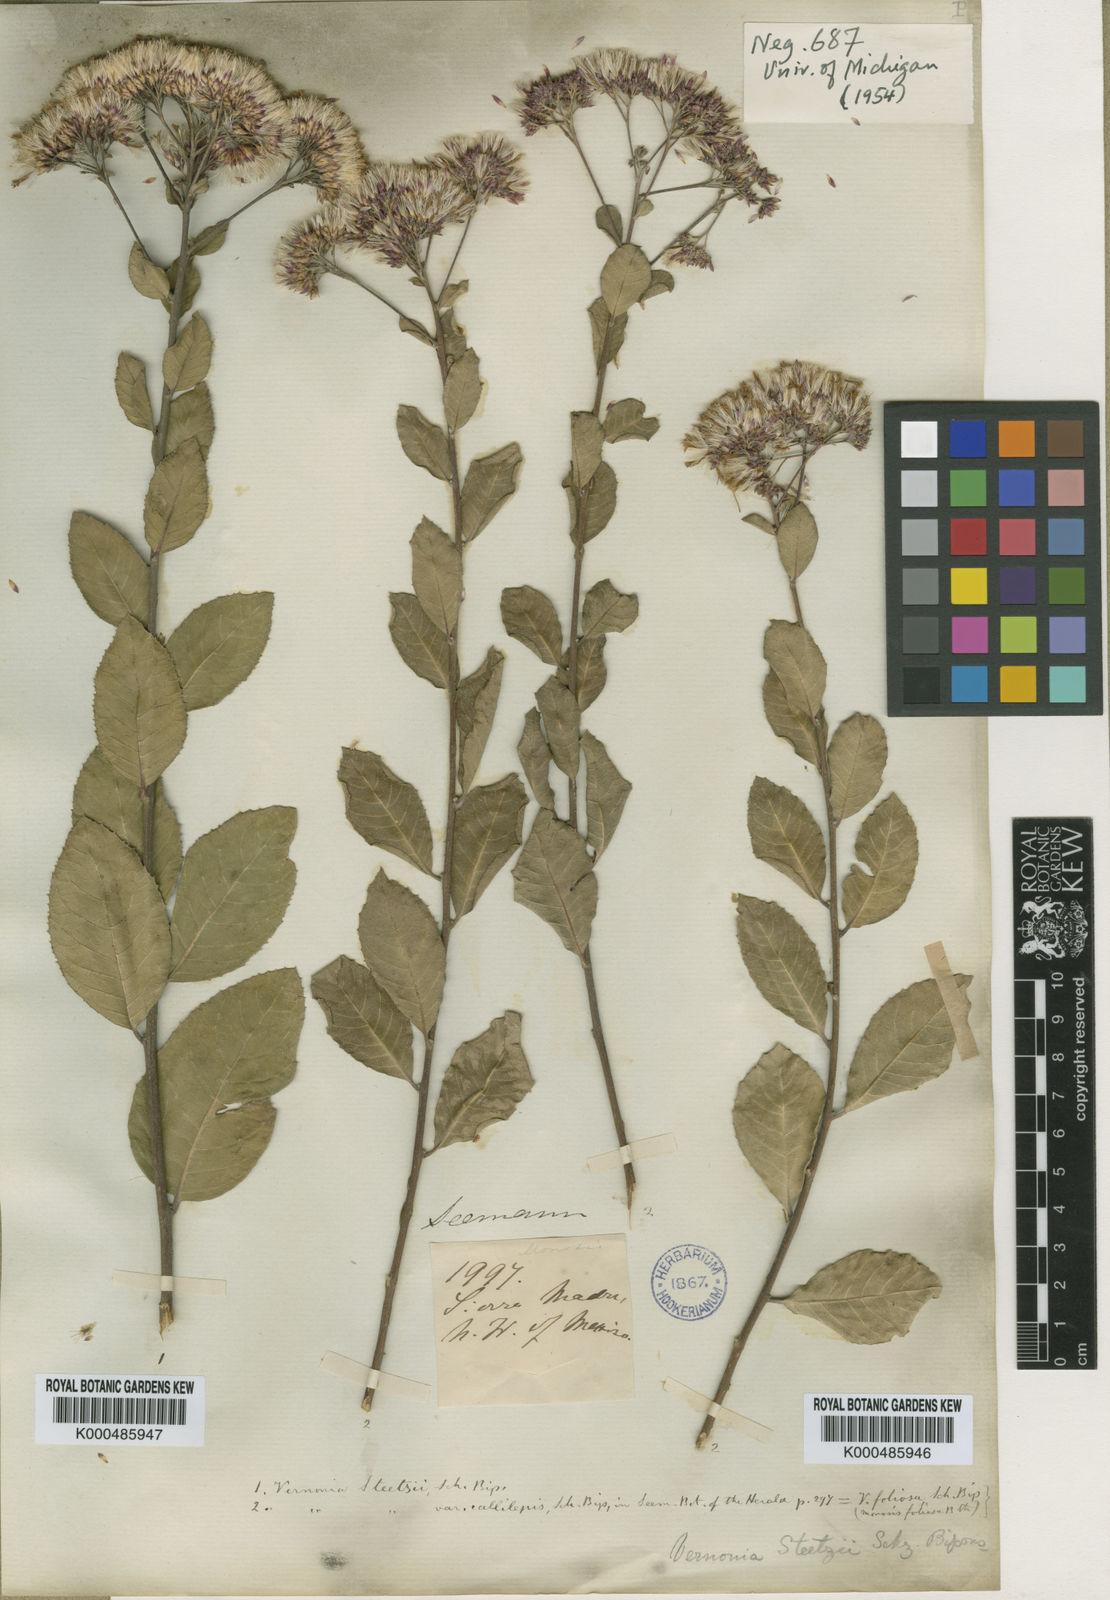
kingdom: Plantae
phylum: Tracheophyta
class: Magnoliopsida
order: Asterales
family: Asteraceae
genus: Eremosis
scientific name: Eremosis foliosa
